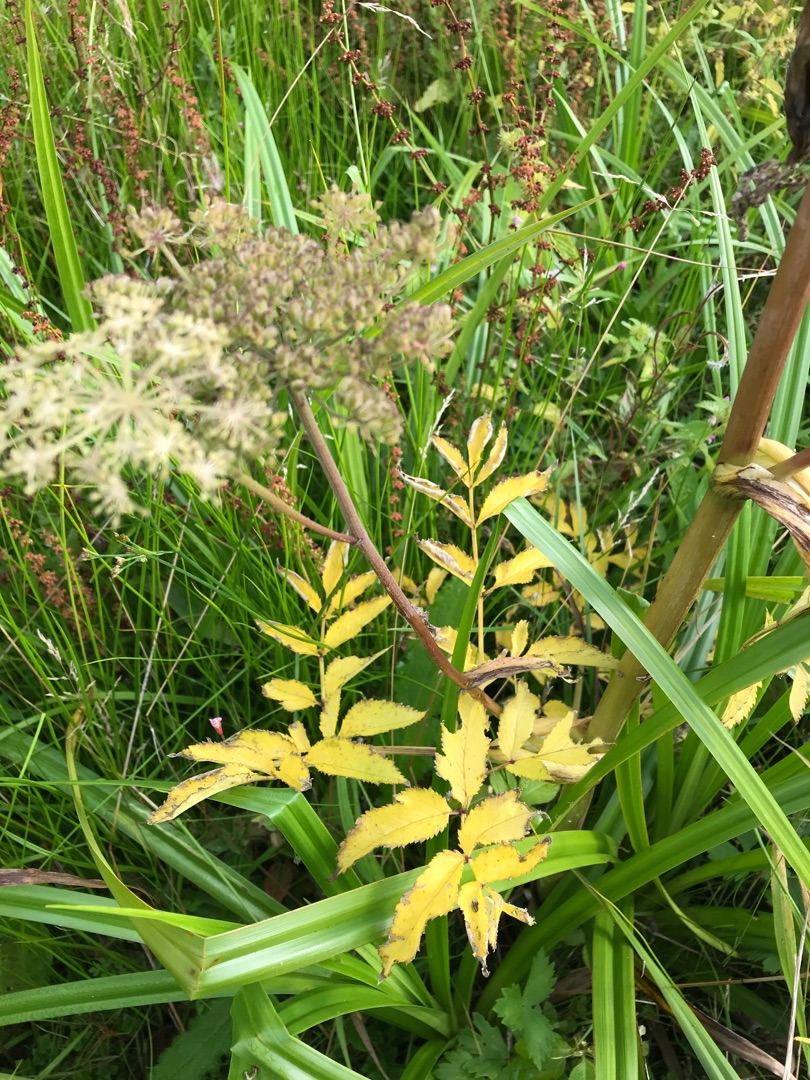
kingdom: Plantae
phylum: Tracheophyta
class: Magnoliopsida
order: Apiales
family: Apiaceae
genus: Angelica
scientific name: Angelica sylvestris
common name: Angelik
